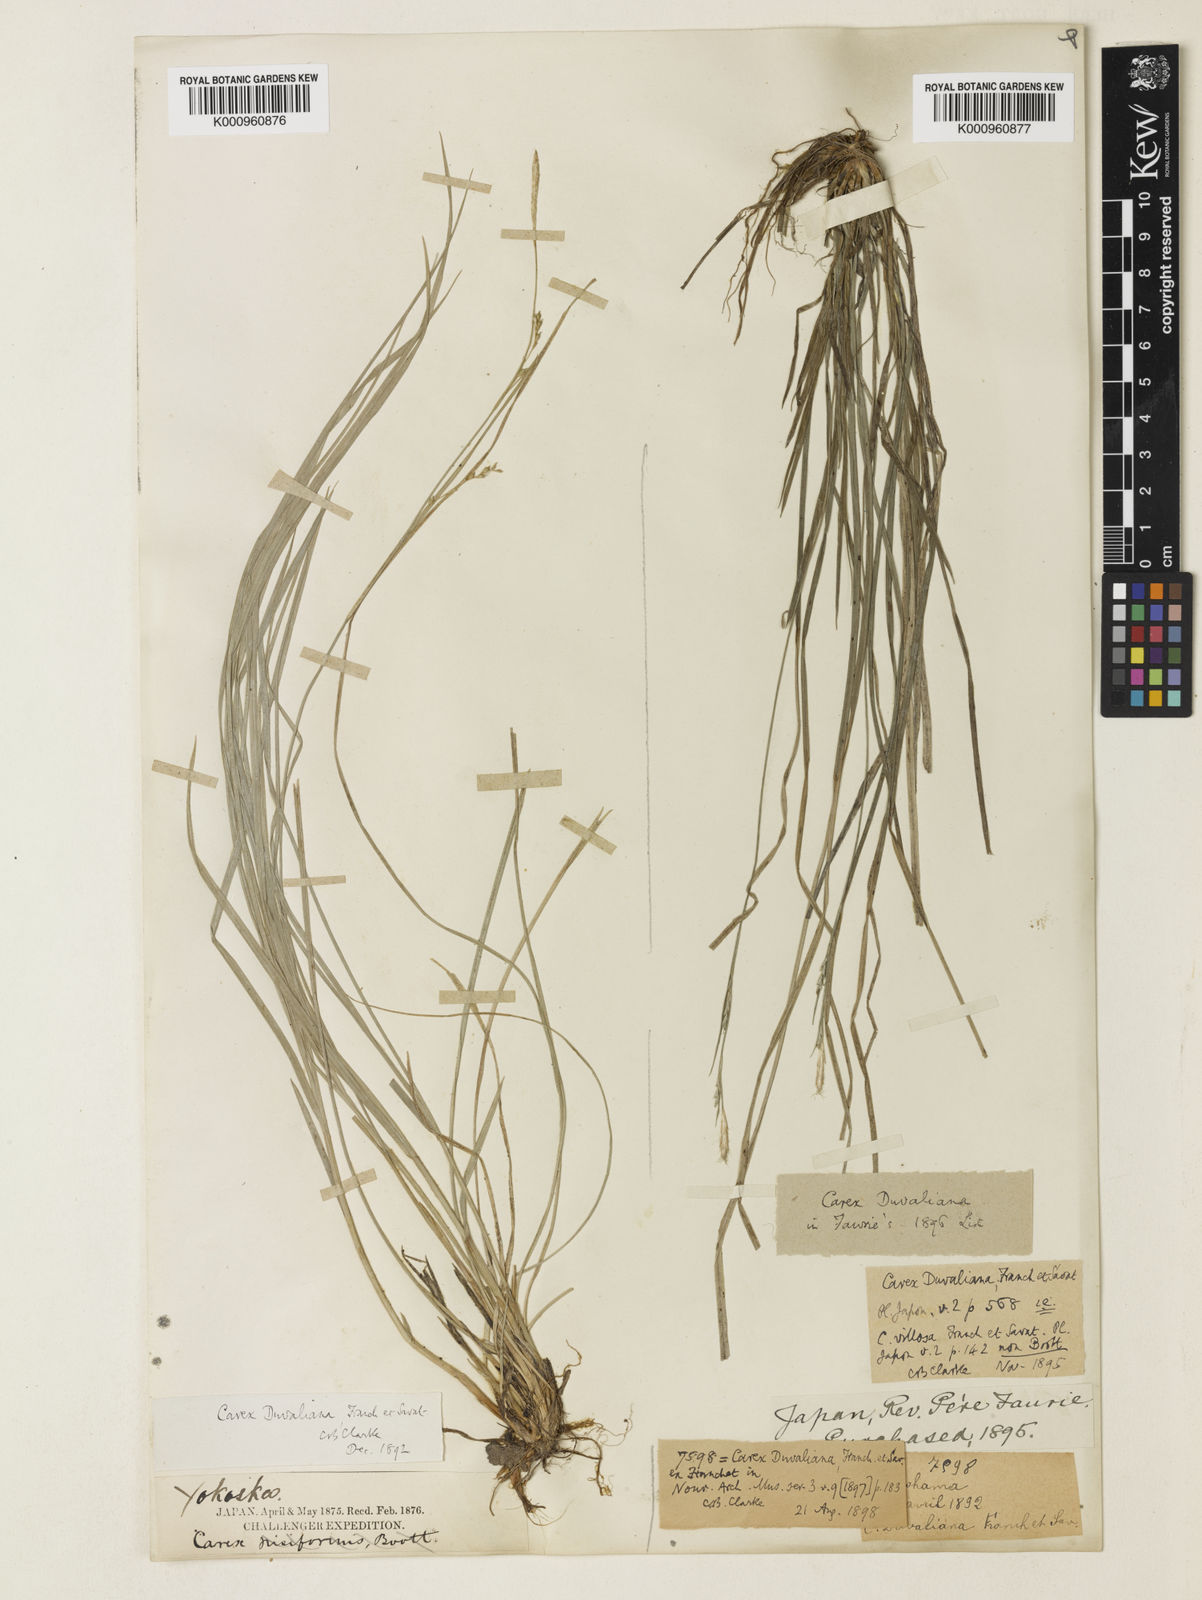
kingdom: Plantae
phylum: Tracheophyta
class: Liliopsida
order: Poales
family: Cyperaceae
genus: Carex
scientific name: Carex muricata
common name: Rough sedge
